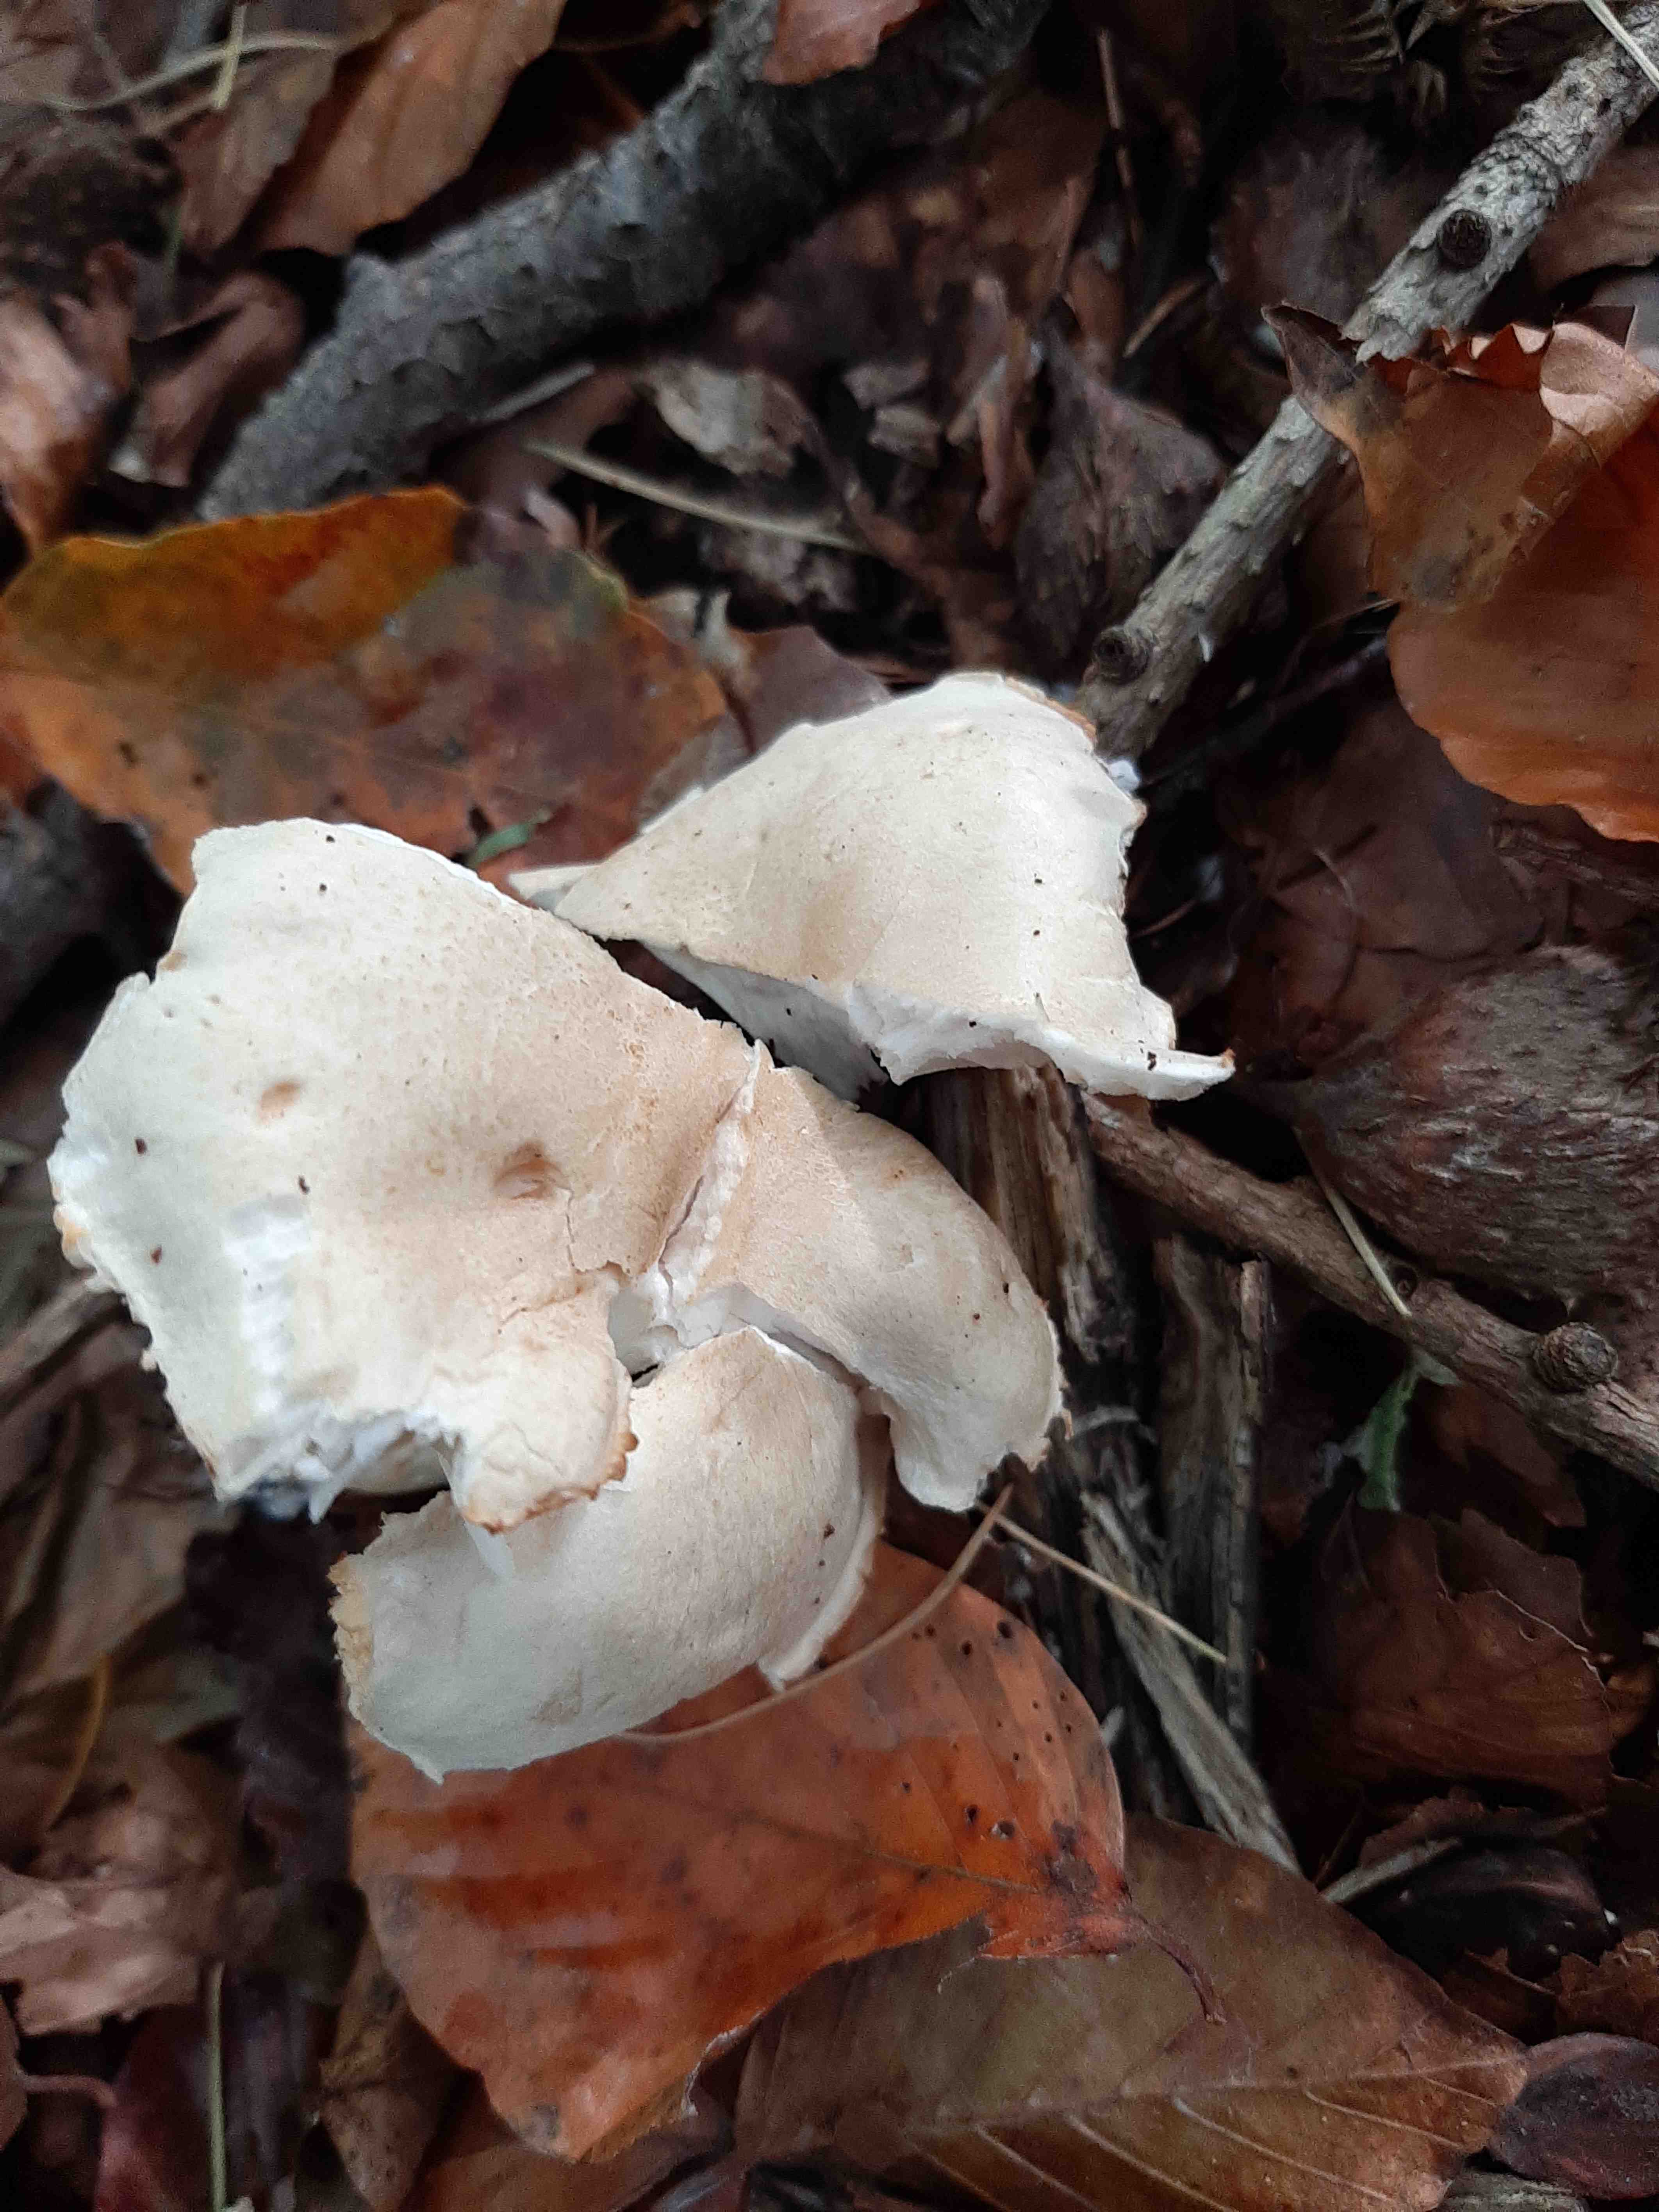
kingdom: Fungi
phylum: Basidiomycota
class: Agaricomycetes
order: Agaricales
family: Tricholomataceae
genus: Tricholoma
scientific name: Tricholoma lascivum
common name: stinkende ridderhat
